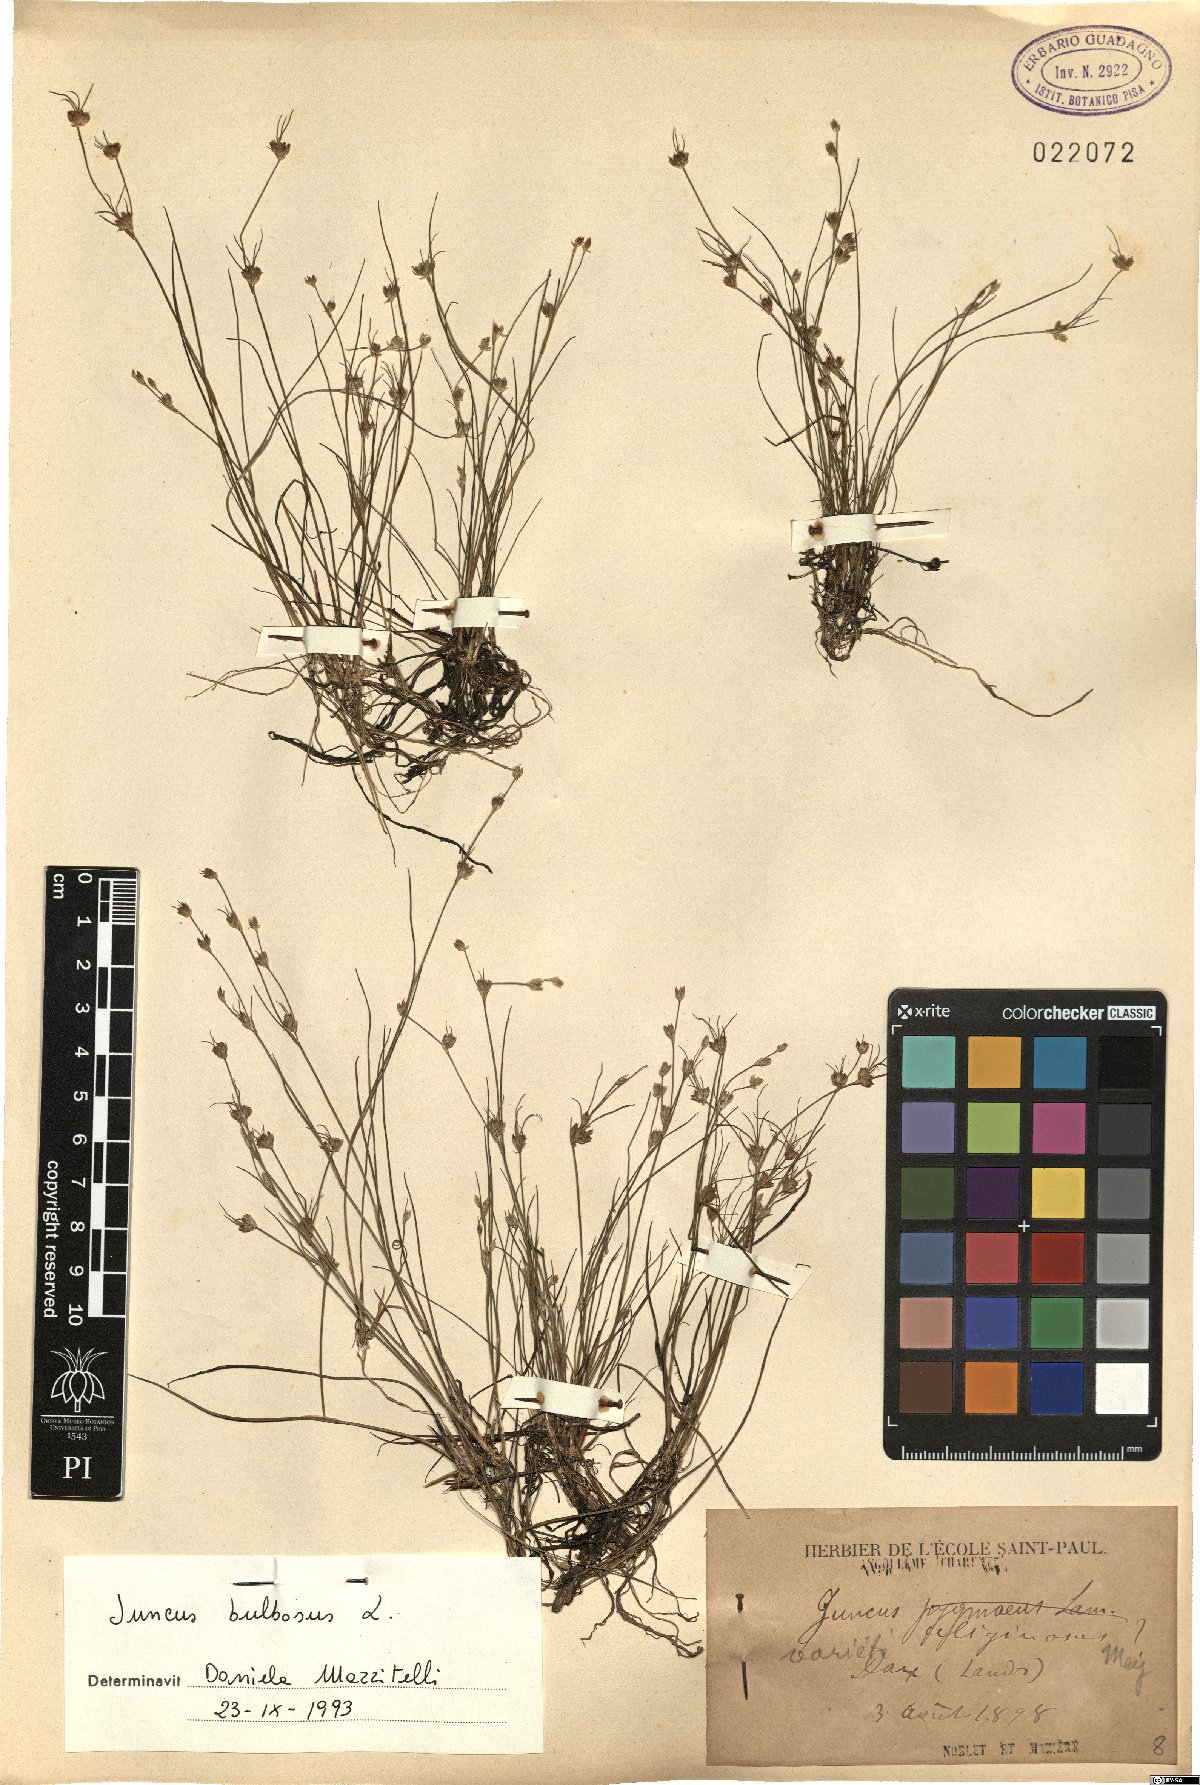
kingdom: Plantae
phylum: Tracheophyta
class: Liliopsida
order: Poales
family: Juncaceae
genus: Juncus
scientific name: Juncus bulbosus
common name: Bulbous rush
